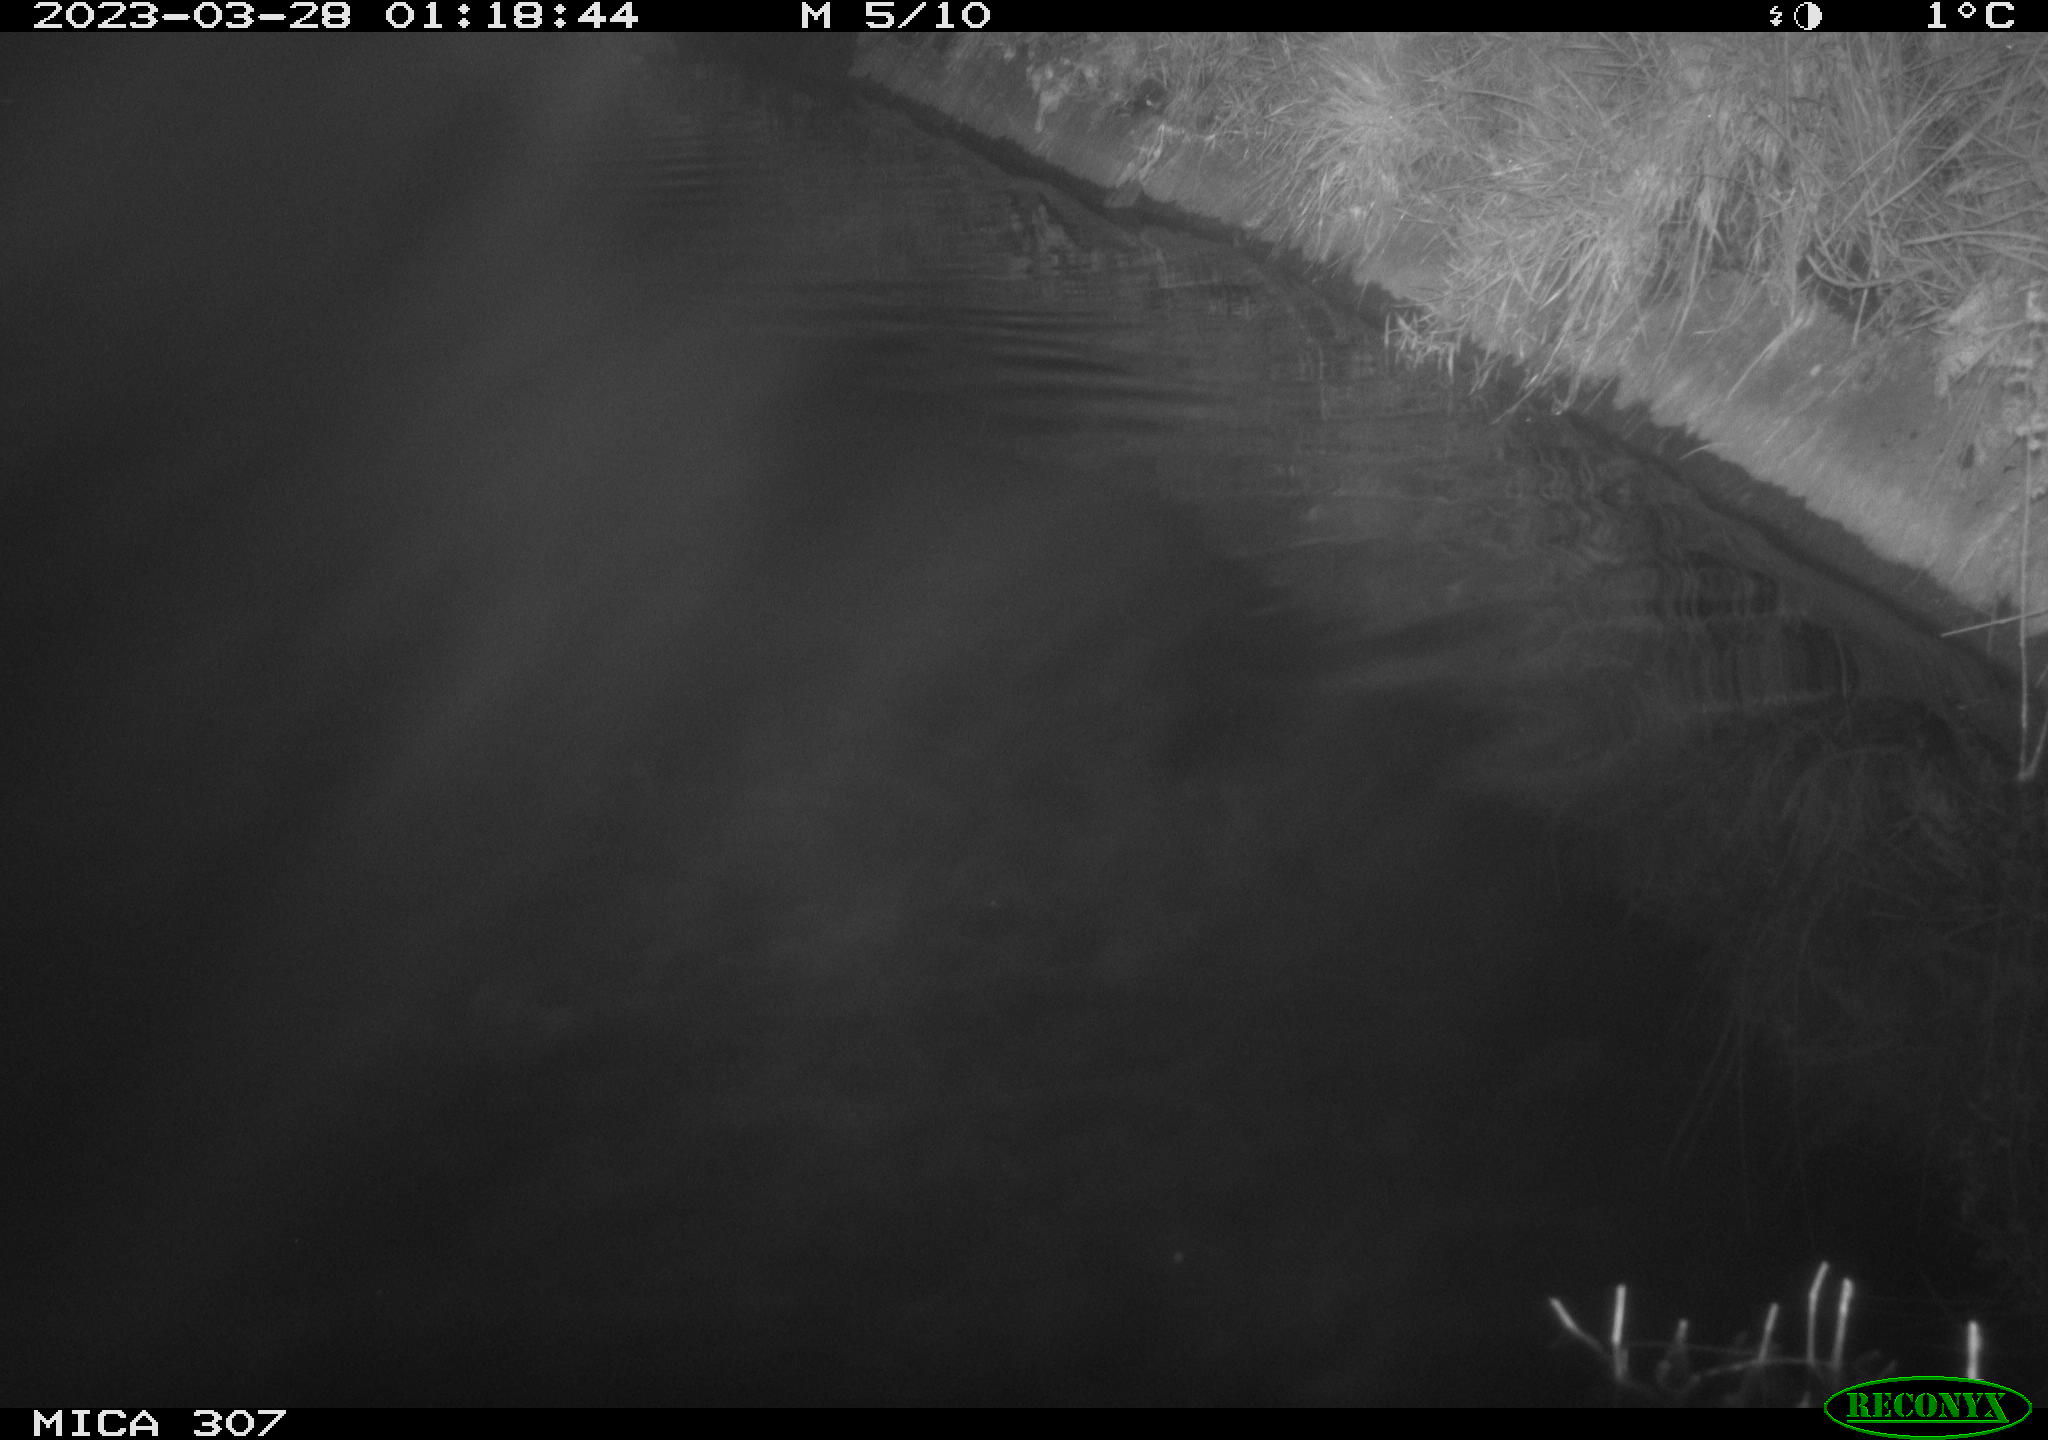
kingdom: Animalia
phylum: Chordata
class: Aves
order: Anseriformes
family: Anatidae
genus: Anas
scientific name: Anas
